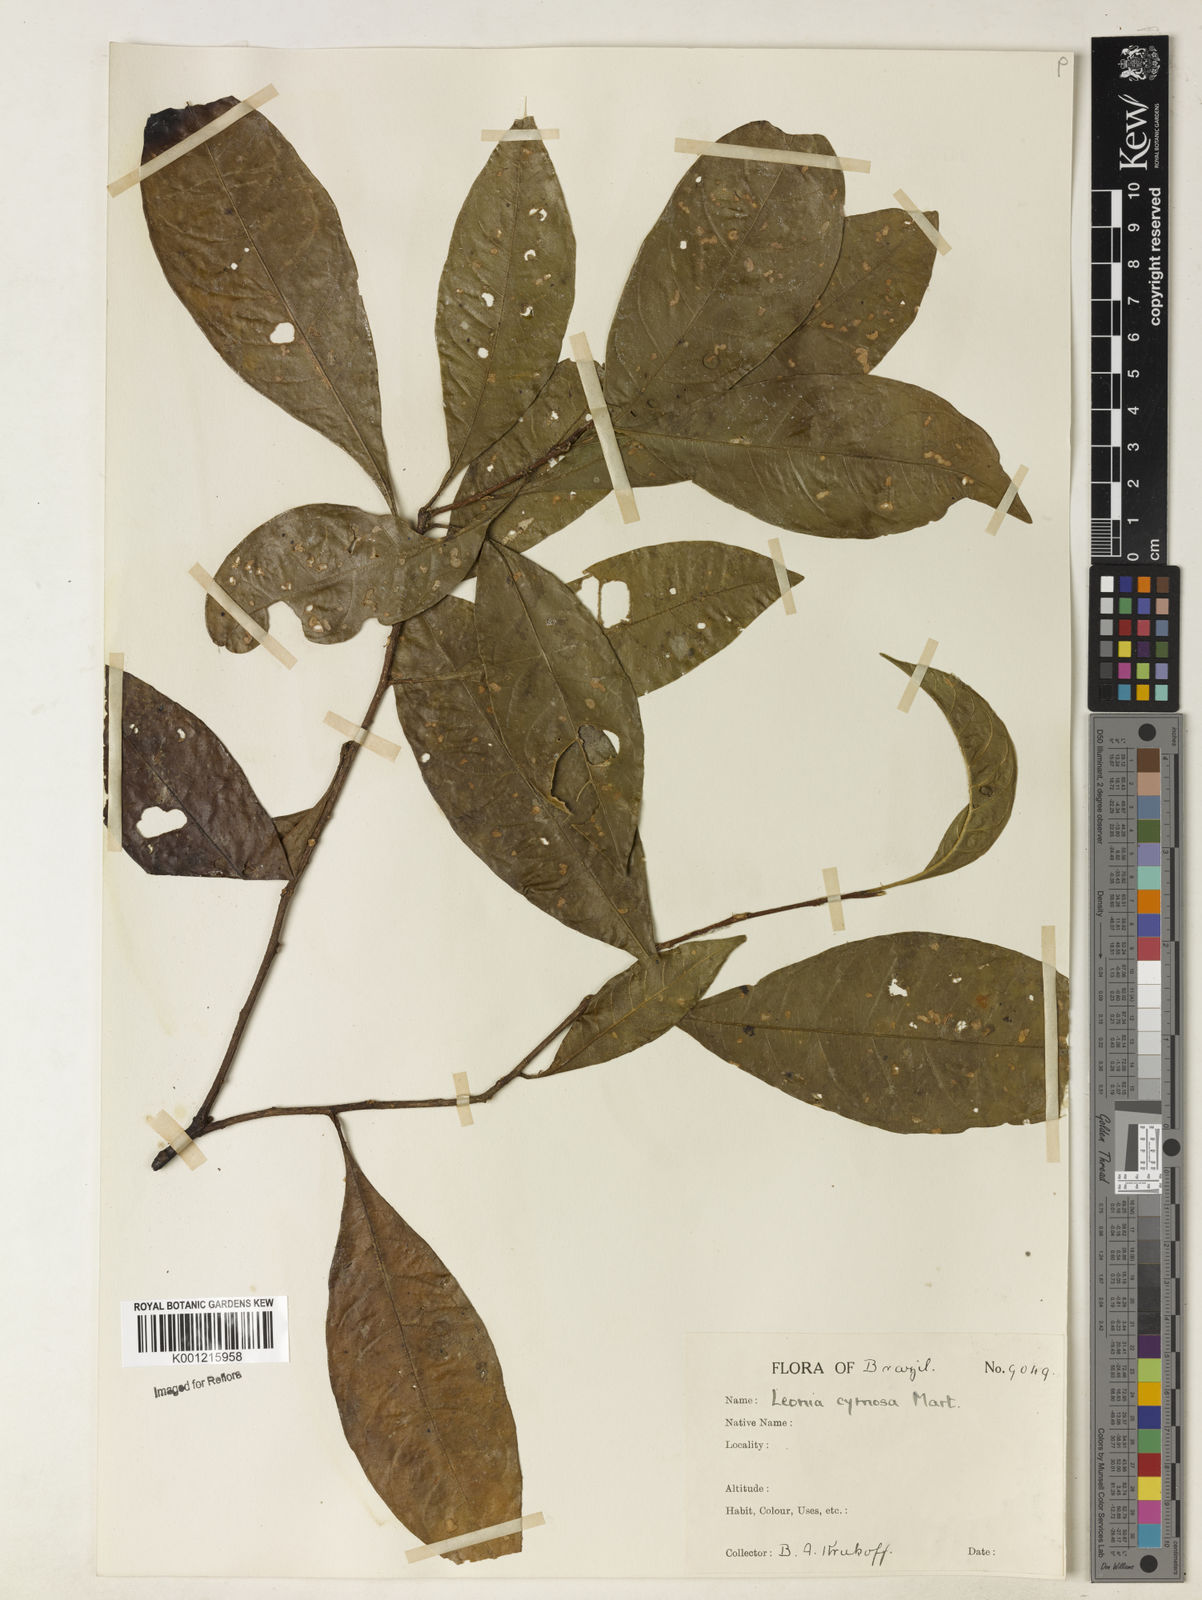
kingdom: Plantae
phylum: Tracheophyta
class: Magnoliopsida
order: Malpighiales
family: Violaceae
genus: Leonia
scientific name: Leonia cymosa
